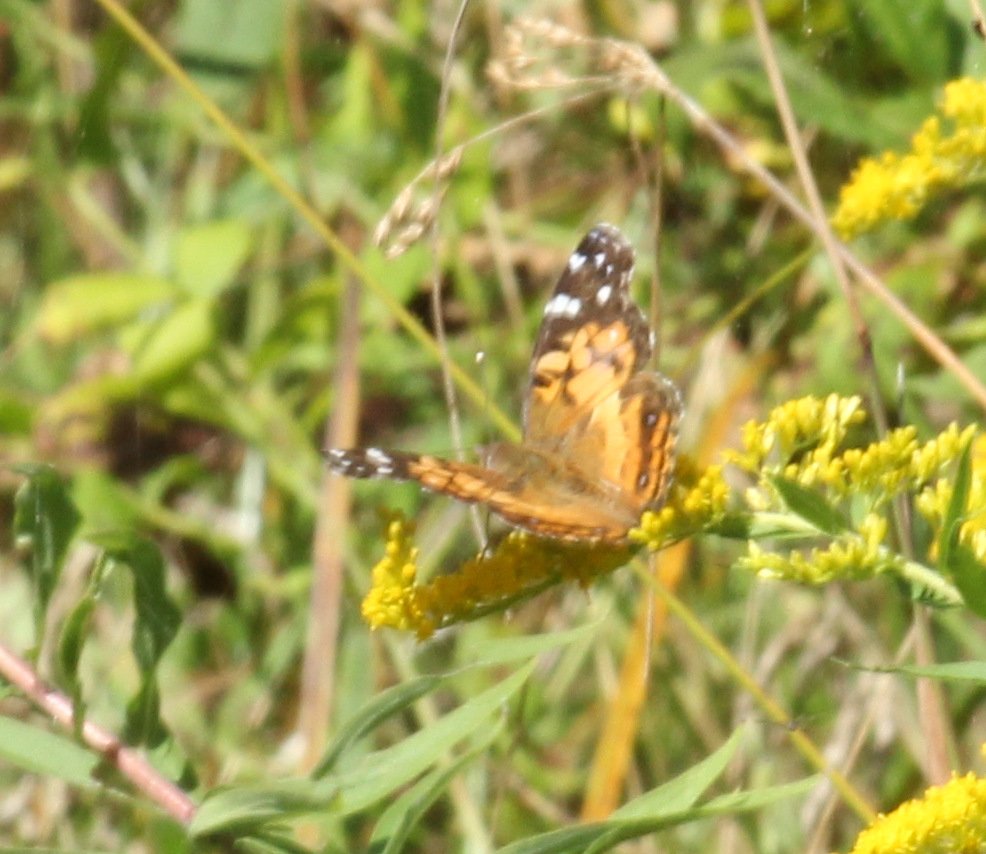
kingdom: Animalia
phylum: Arthropoda
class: Insecta
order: Lepidoptera
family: Nymphalidae
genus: Vanessa
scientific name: Vanessa virginiensis
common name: American Lady
